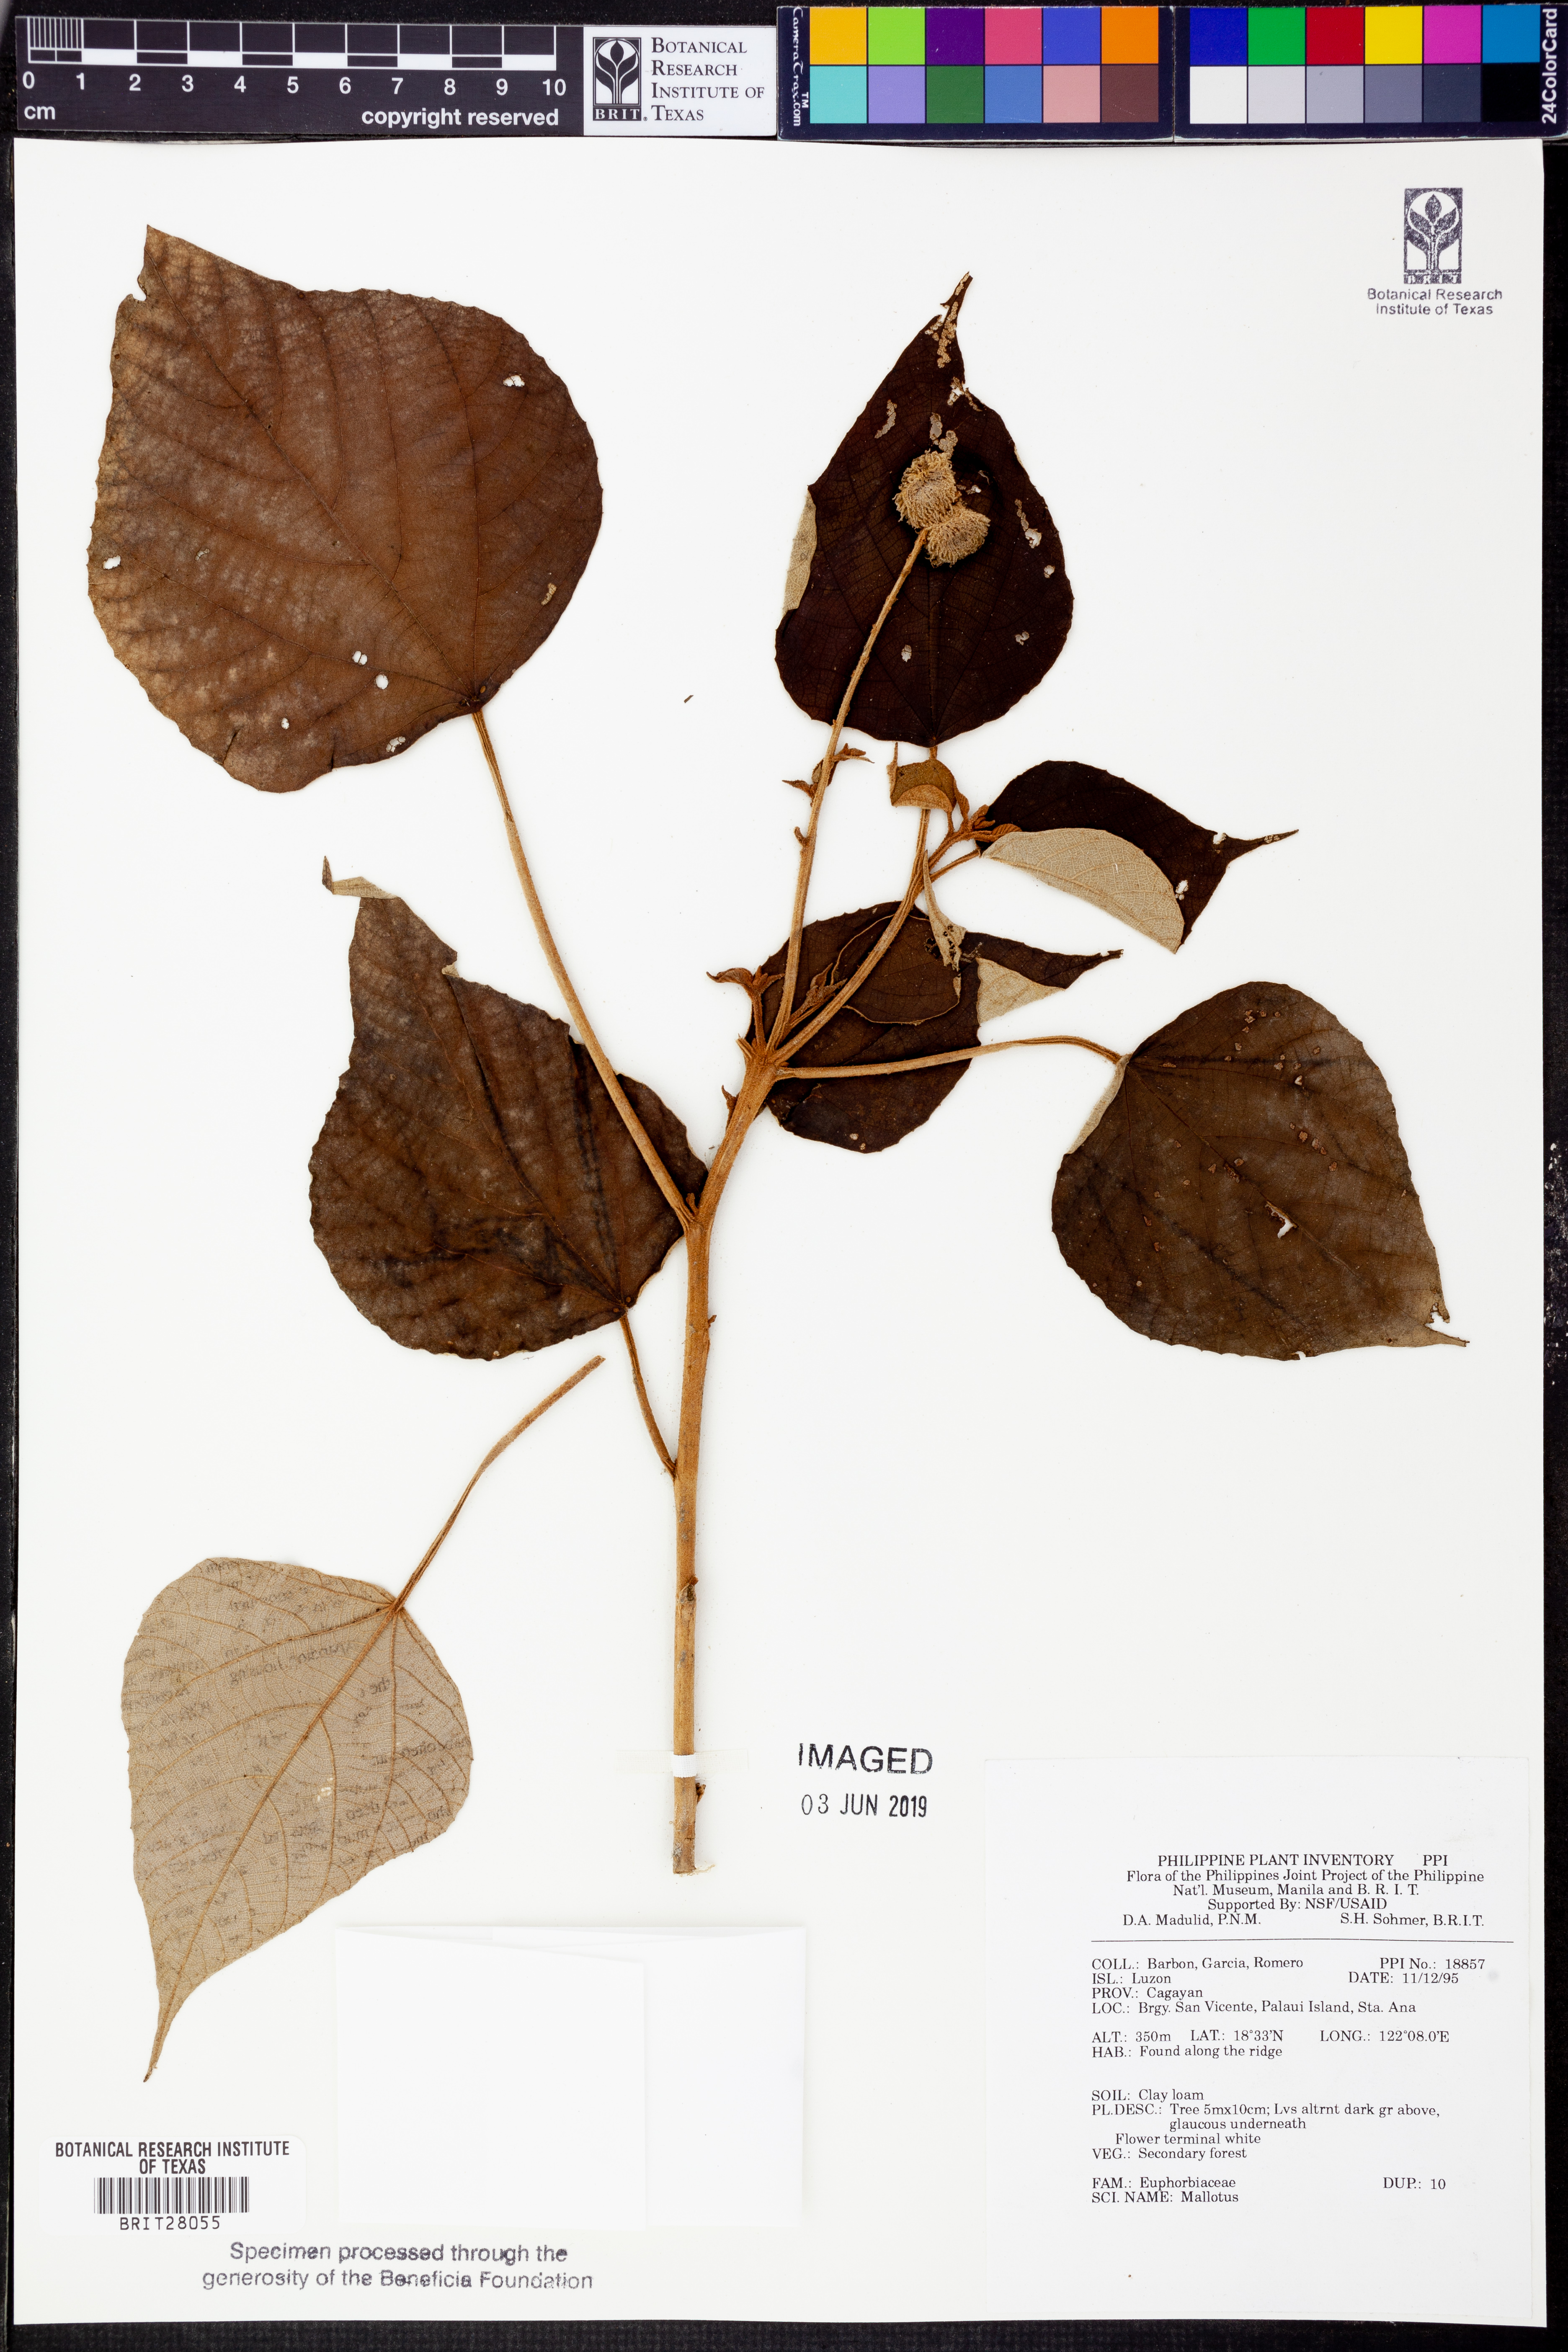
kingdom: Plantae
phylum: Tracheophyta
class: Magnoliopsida
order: Malpighiales
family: Euphorbiaceae
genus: Mallotus
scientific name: Mallotus
